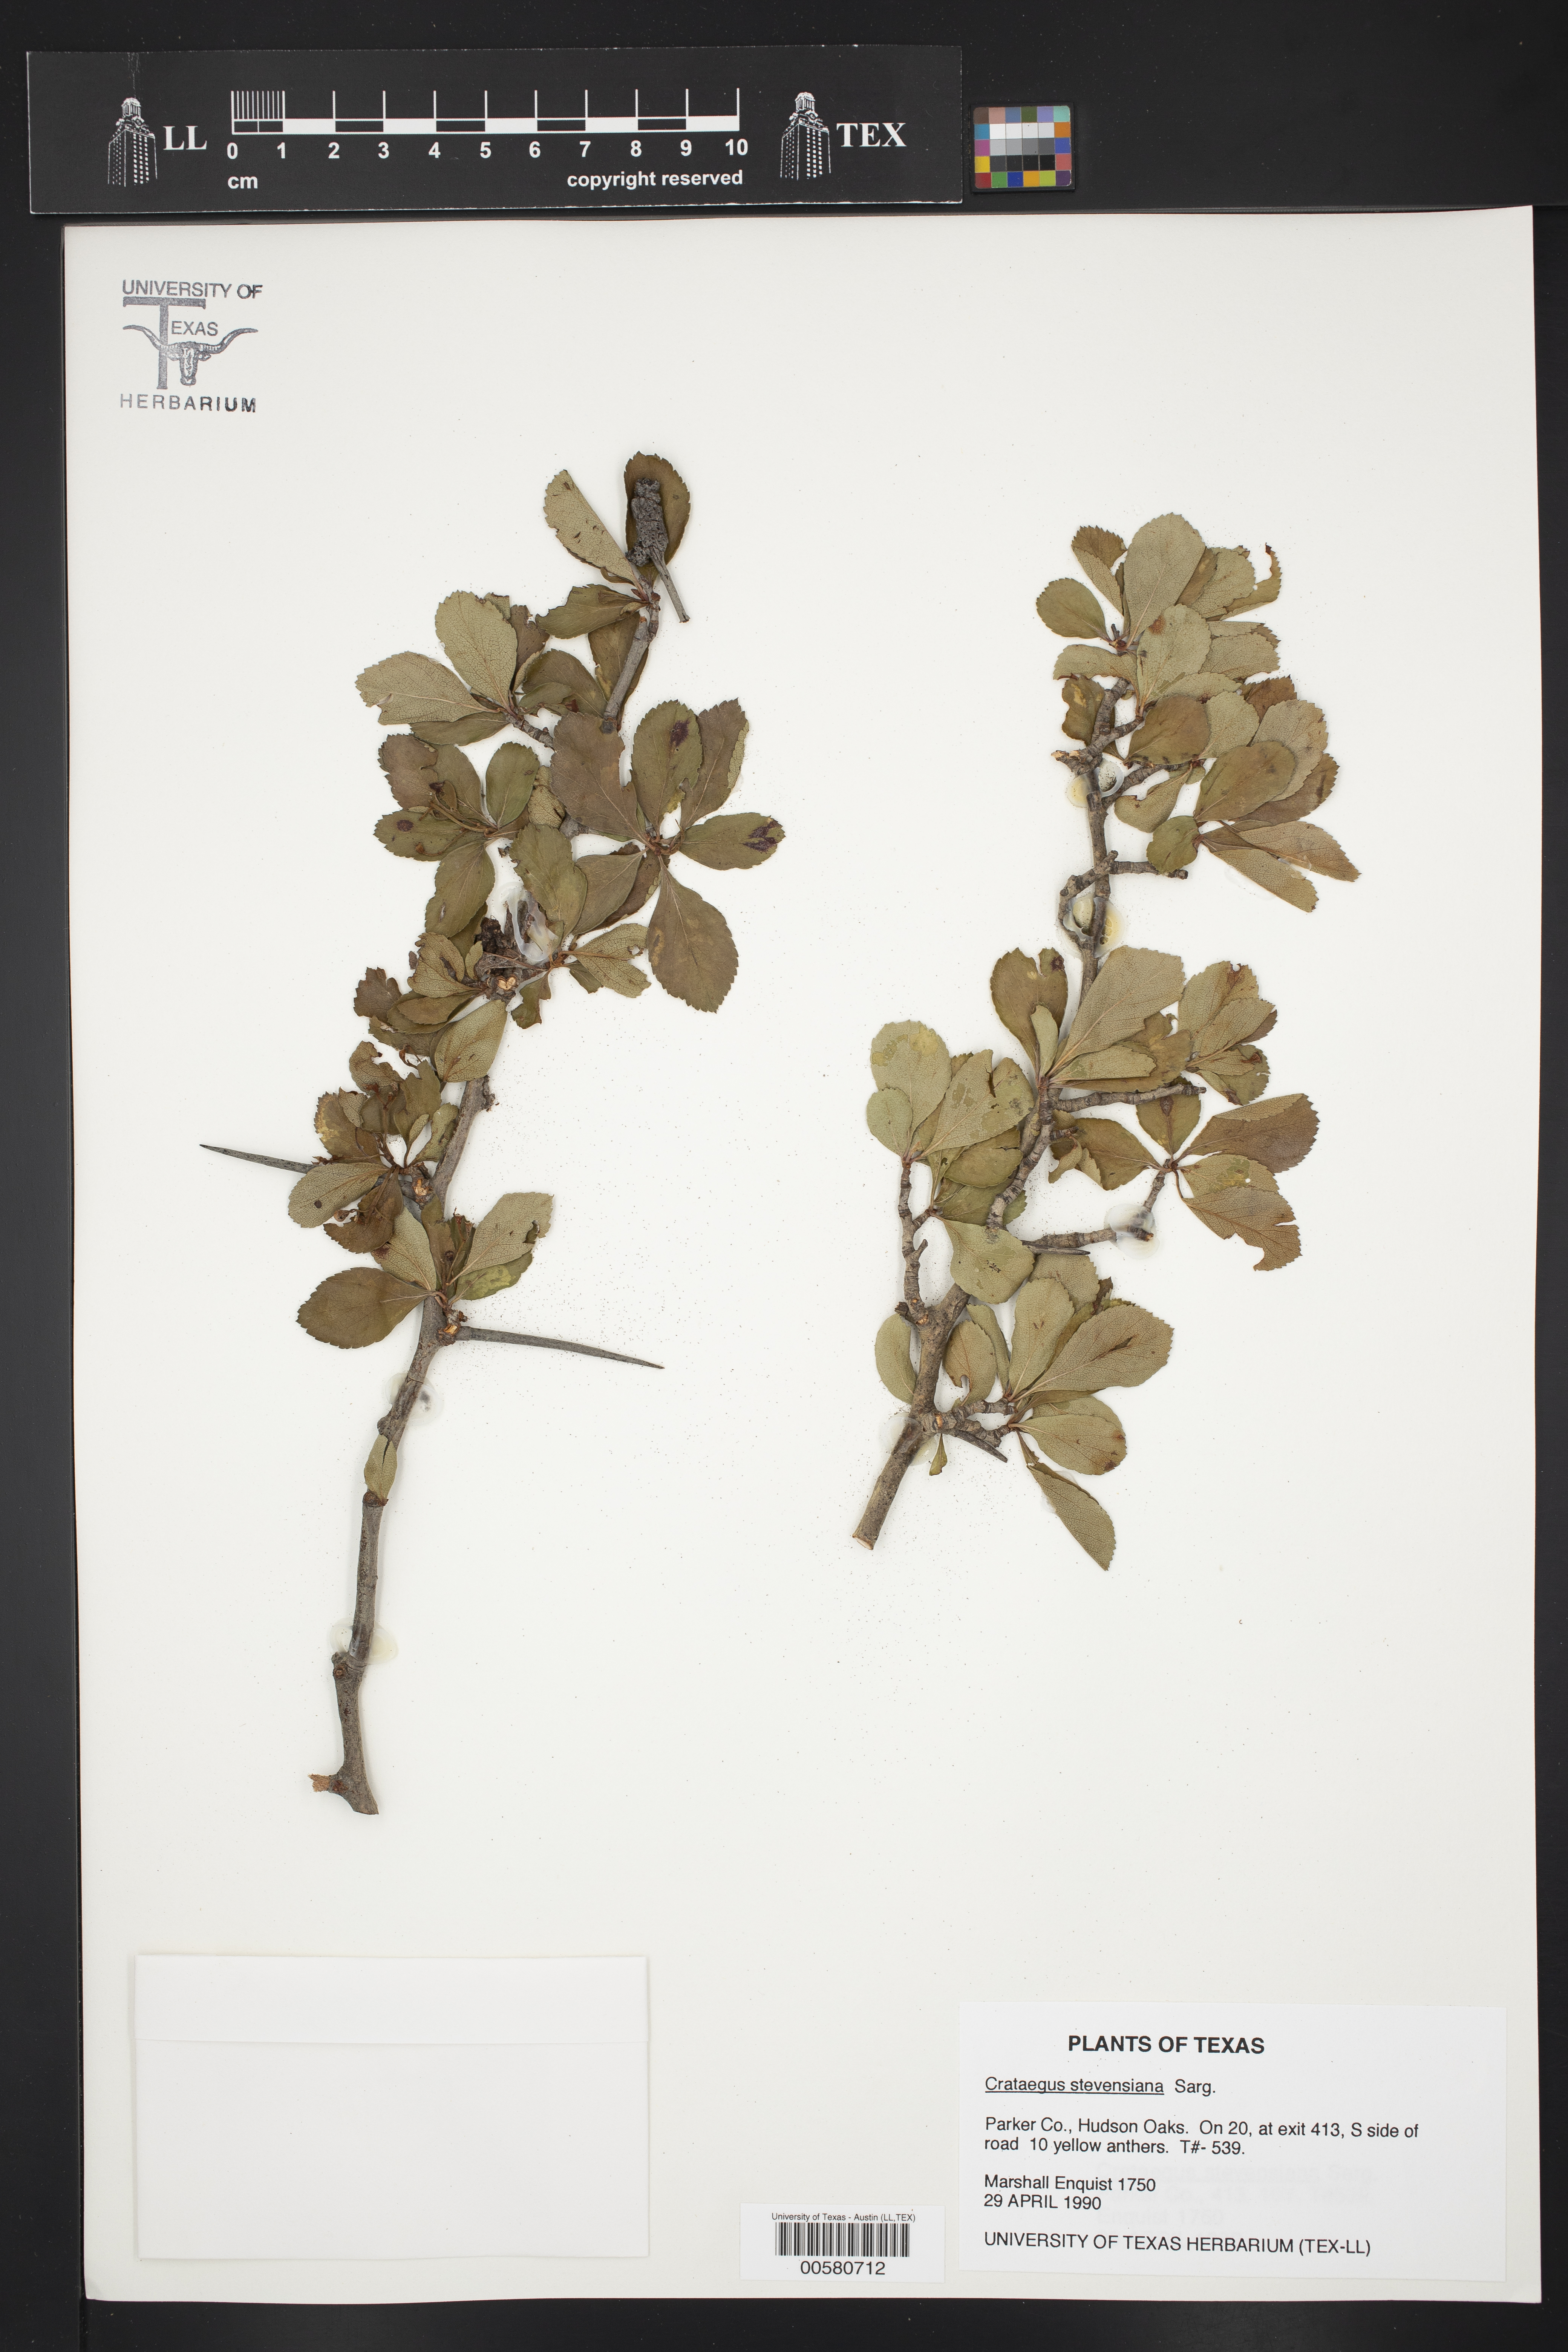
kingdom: Plantae
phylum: Tracheophyta
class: Magnoliopsida
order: Rosales
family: Rosaceae
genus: Crataegus
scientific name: Crataegus reverchonii
